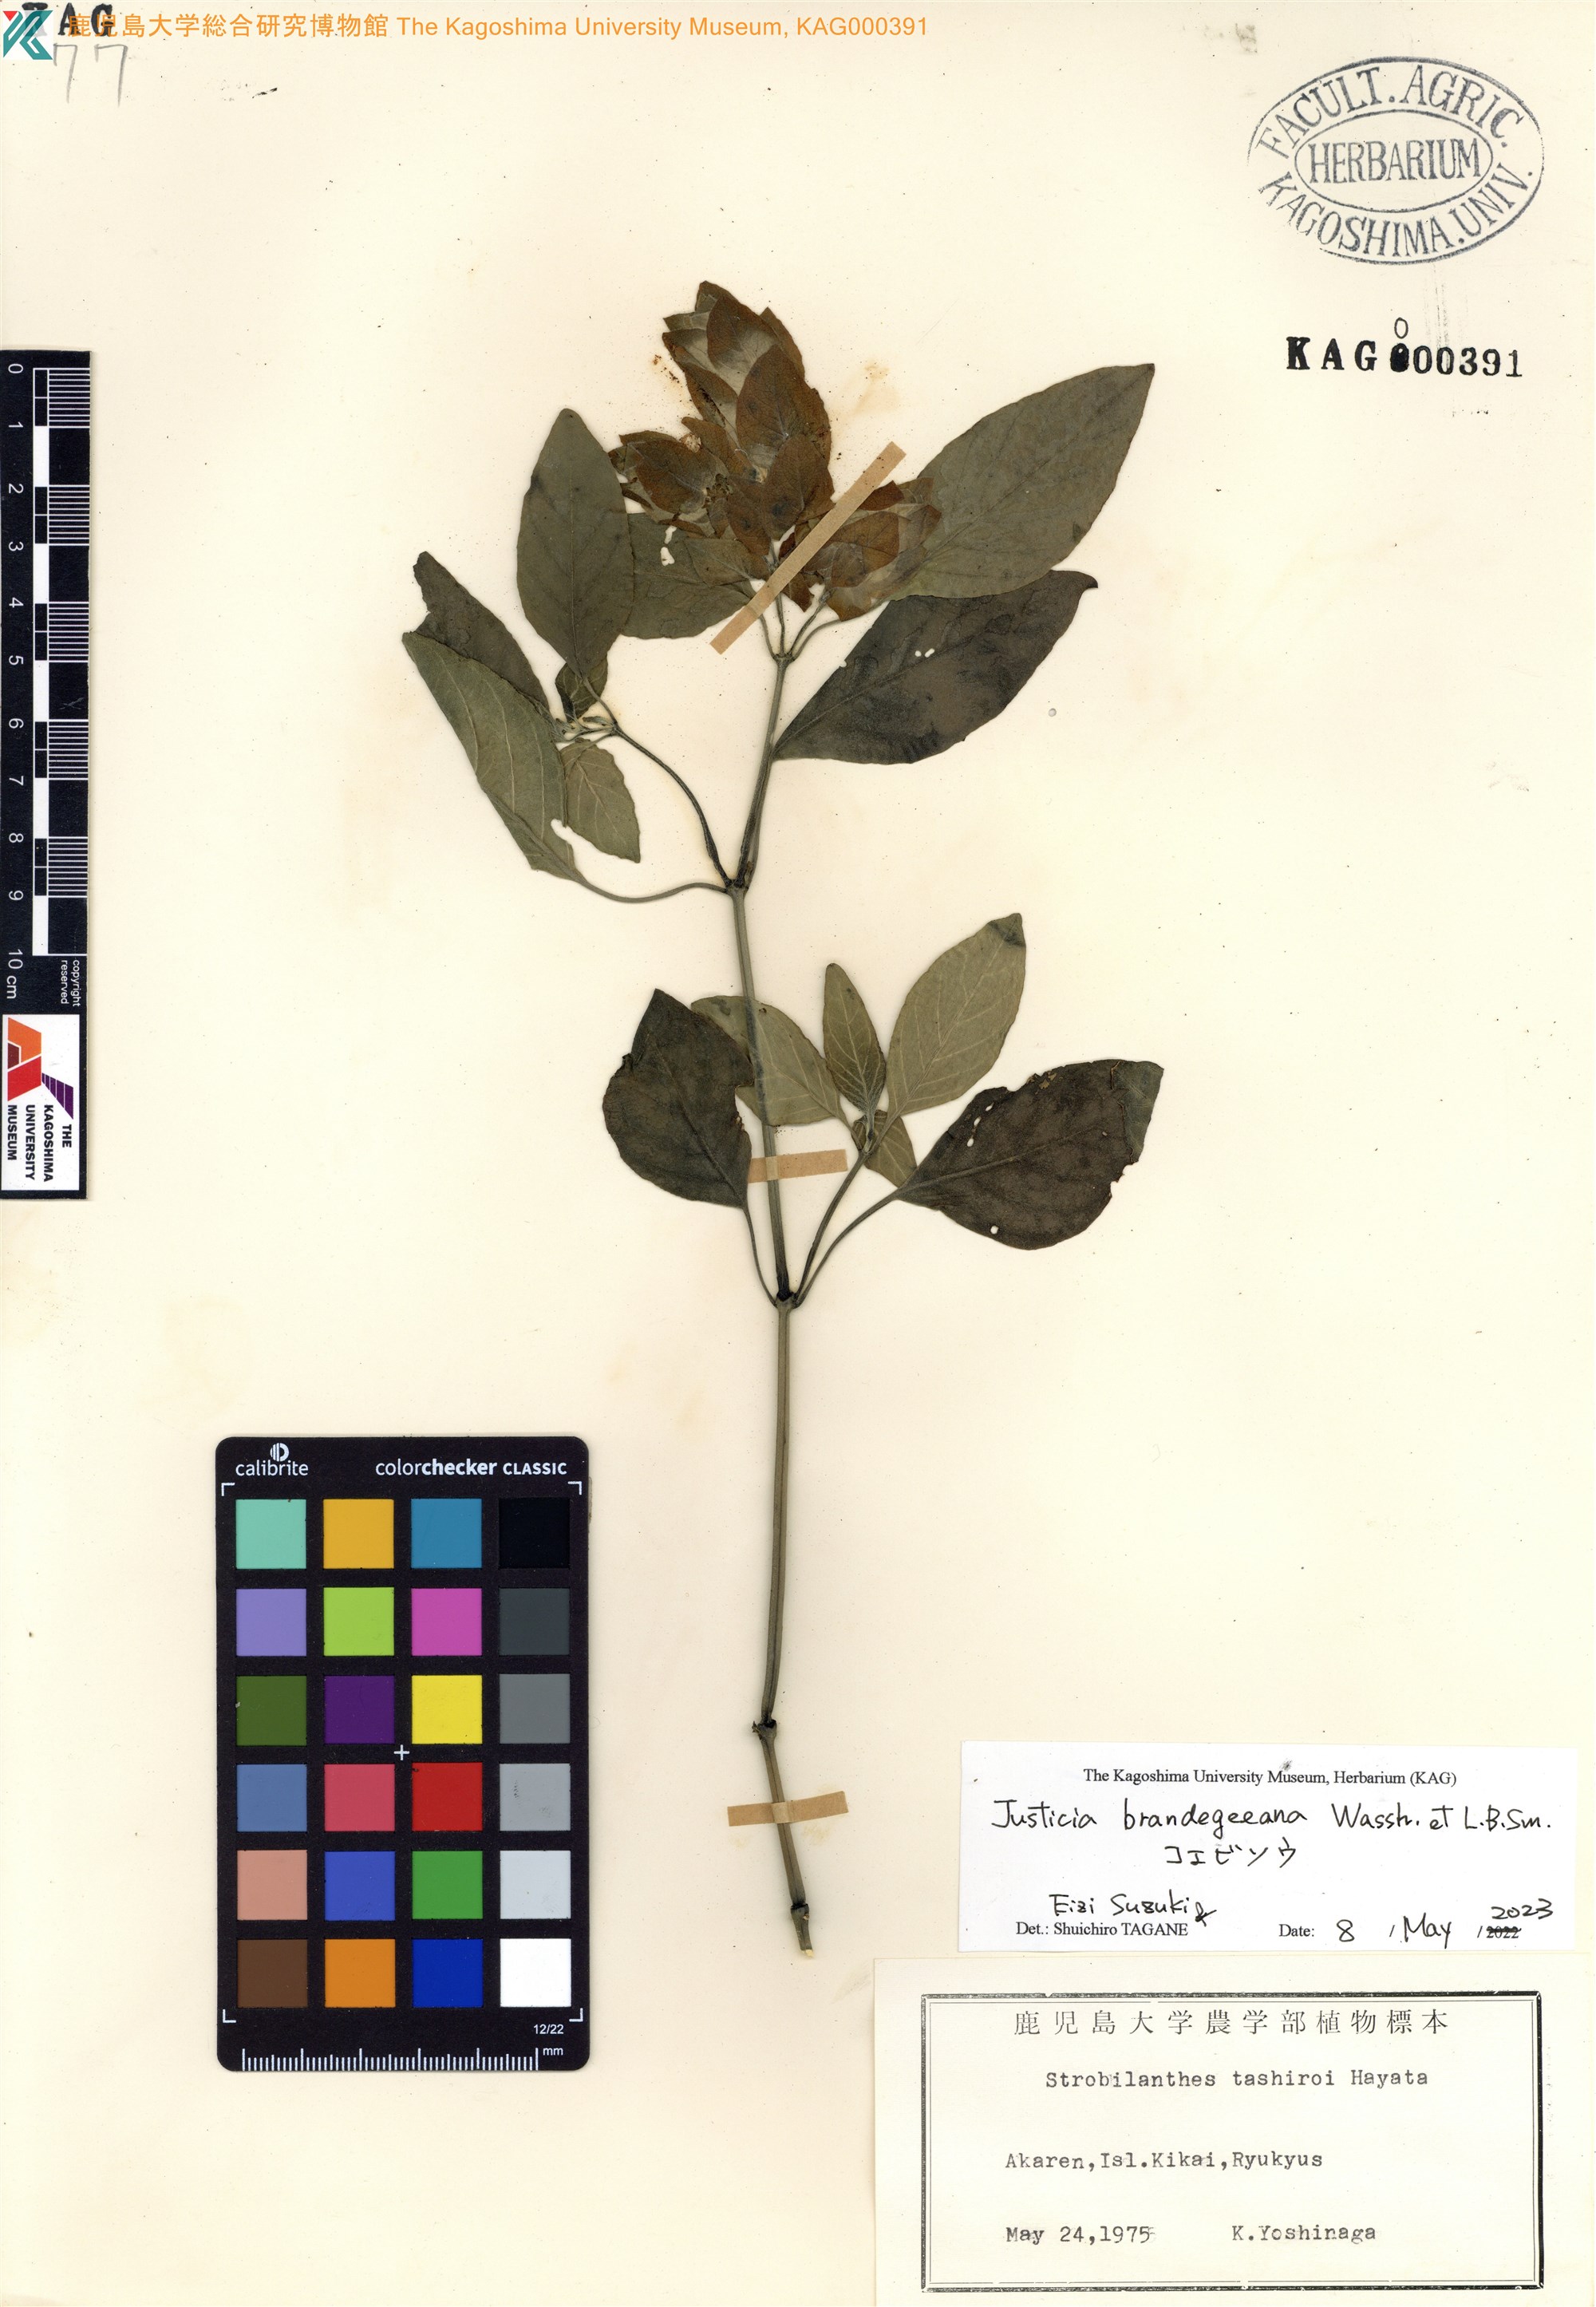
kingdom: Plantae
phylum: Tracheophyta
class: Magnoliopsida
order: Lamiales
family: Acanthaceae
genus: Strobilanthes
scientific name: Strobilanthes flexicaulis
